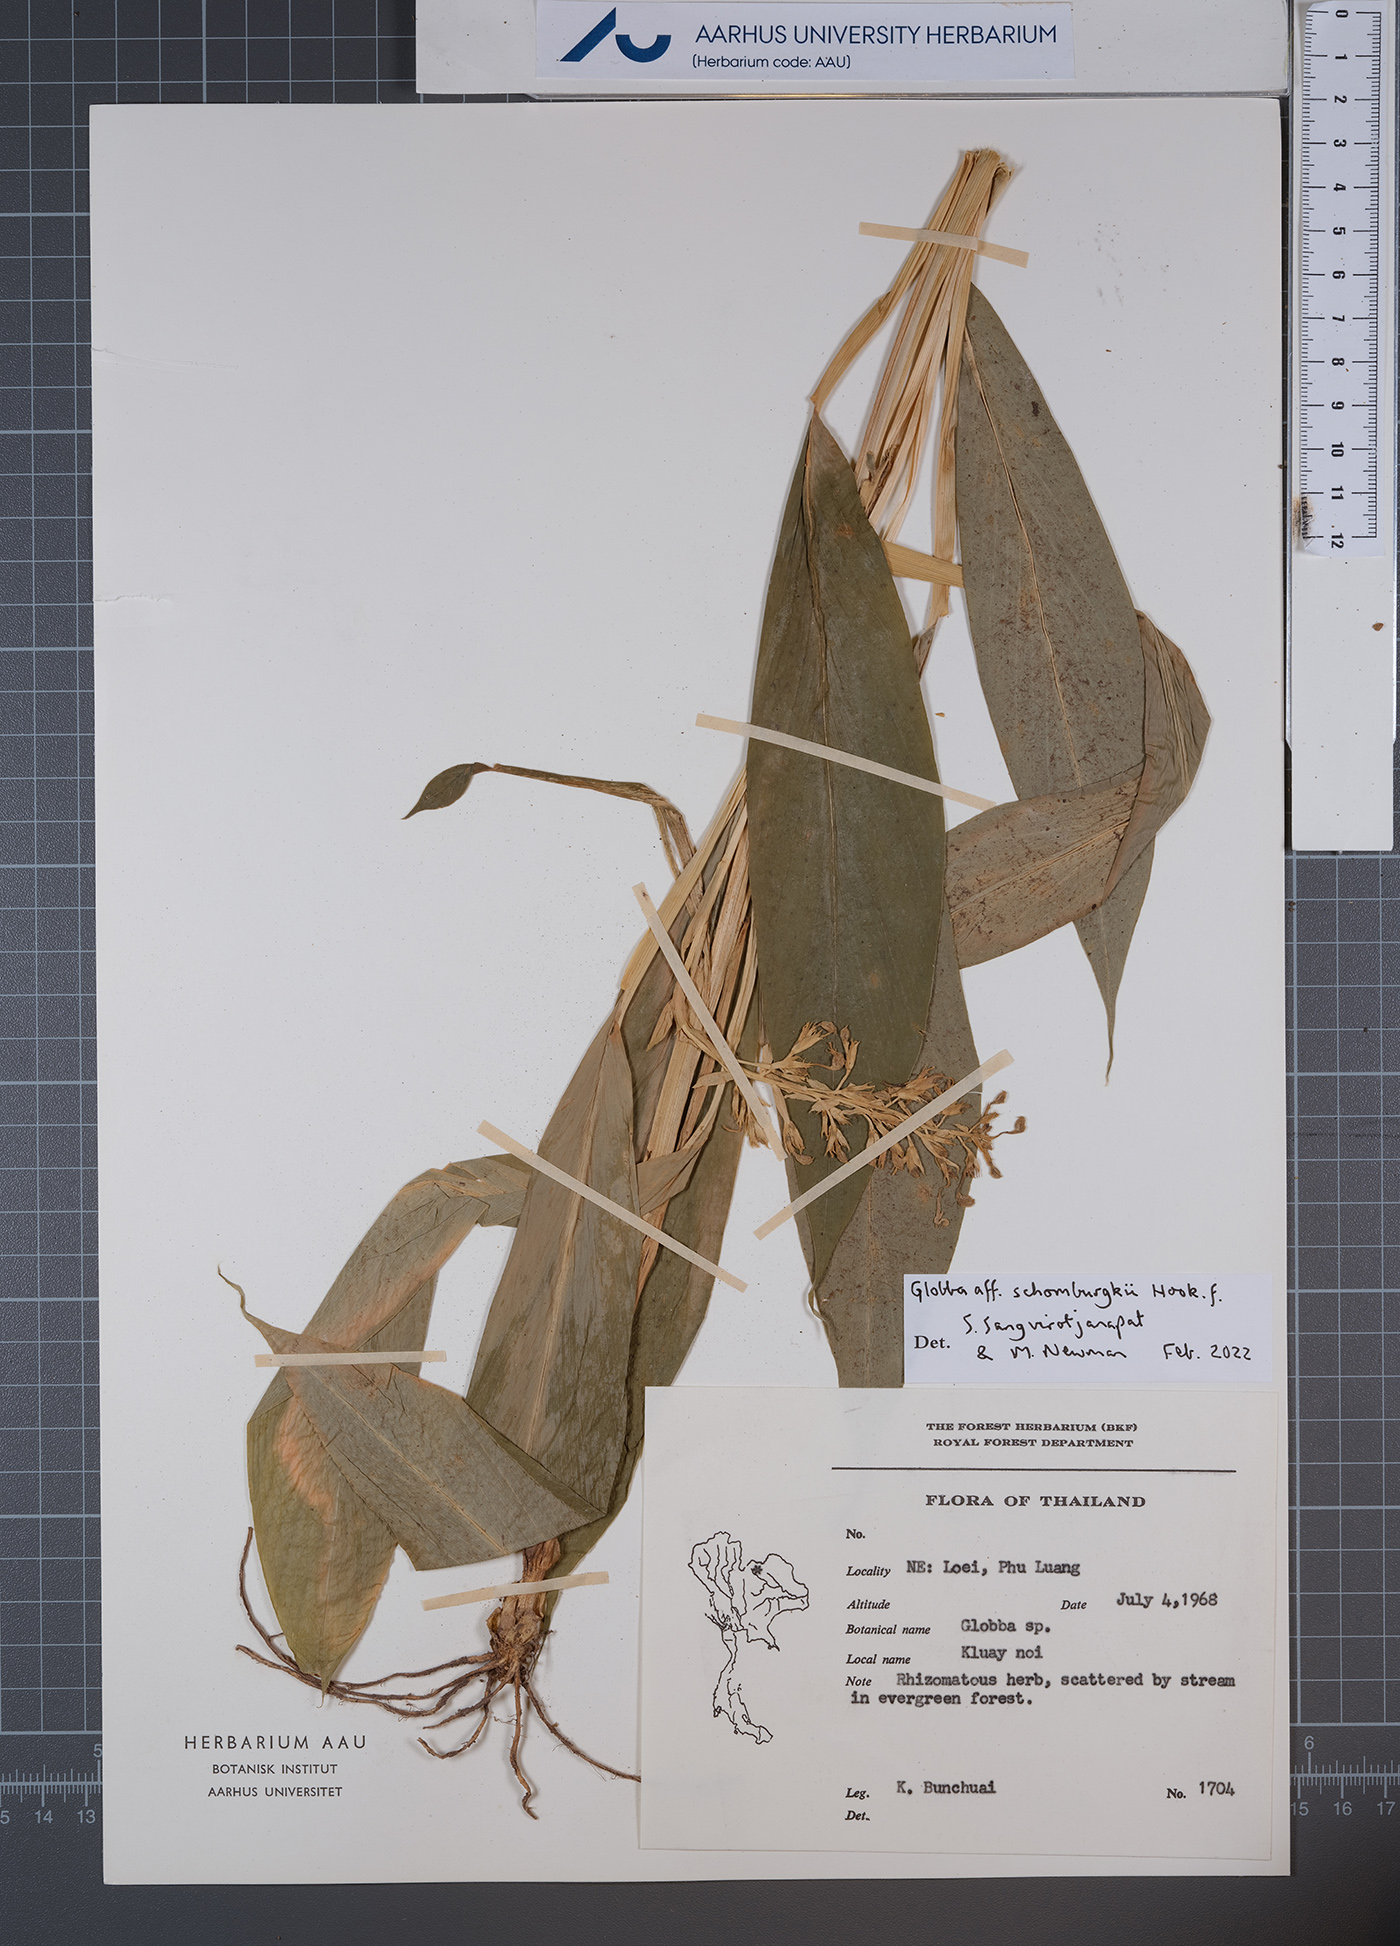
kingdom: Plantae
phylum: Tracheophyta
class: Liliopsida
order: Zingiberales
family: Zingiberaceae
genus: Globba
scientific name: Globba schomburgkii
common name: Dancing girl ginger
